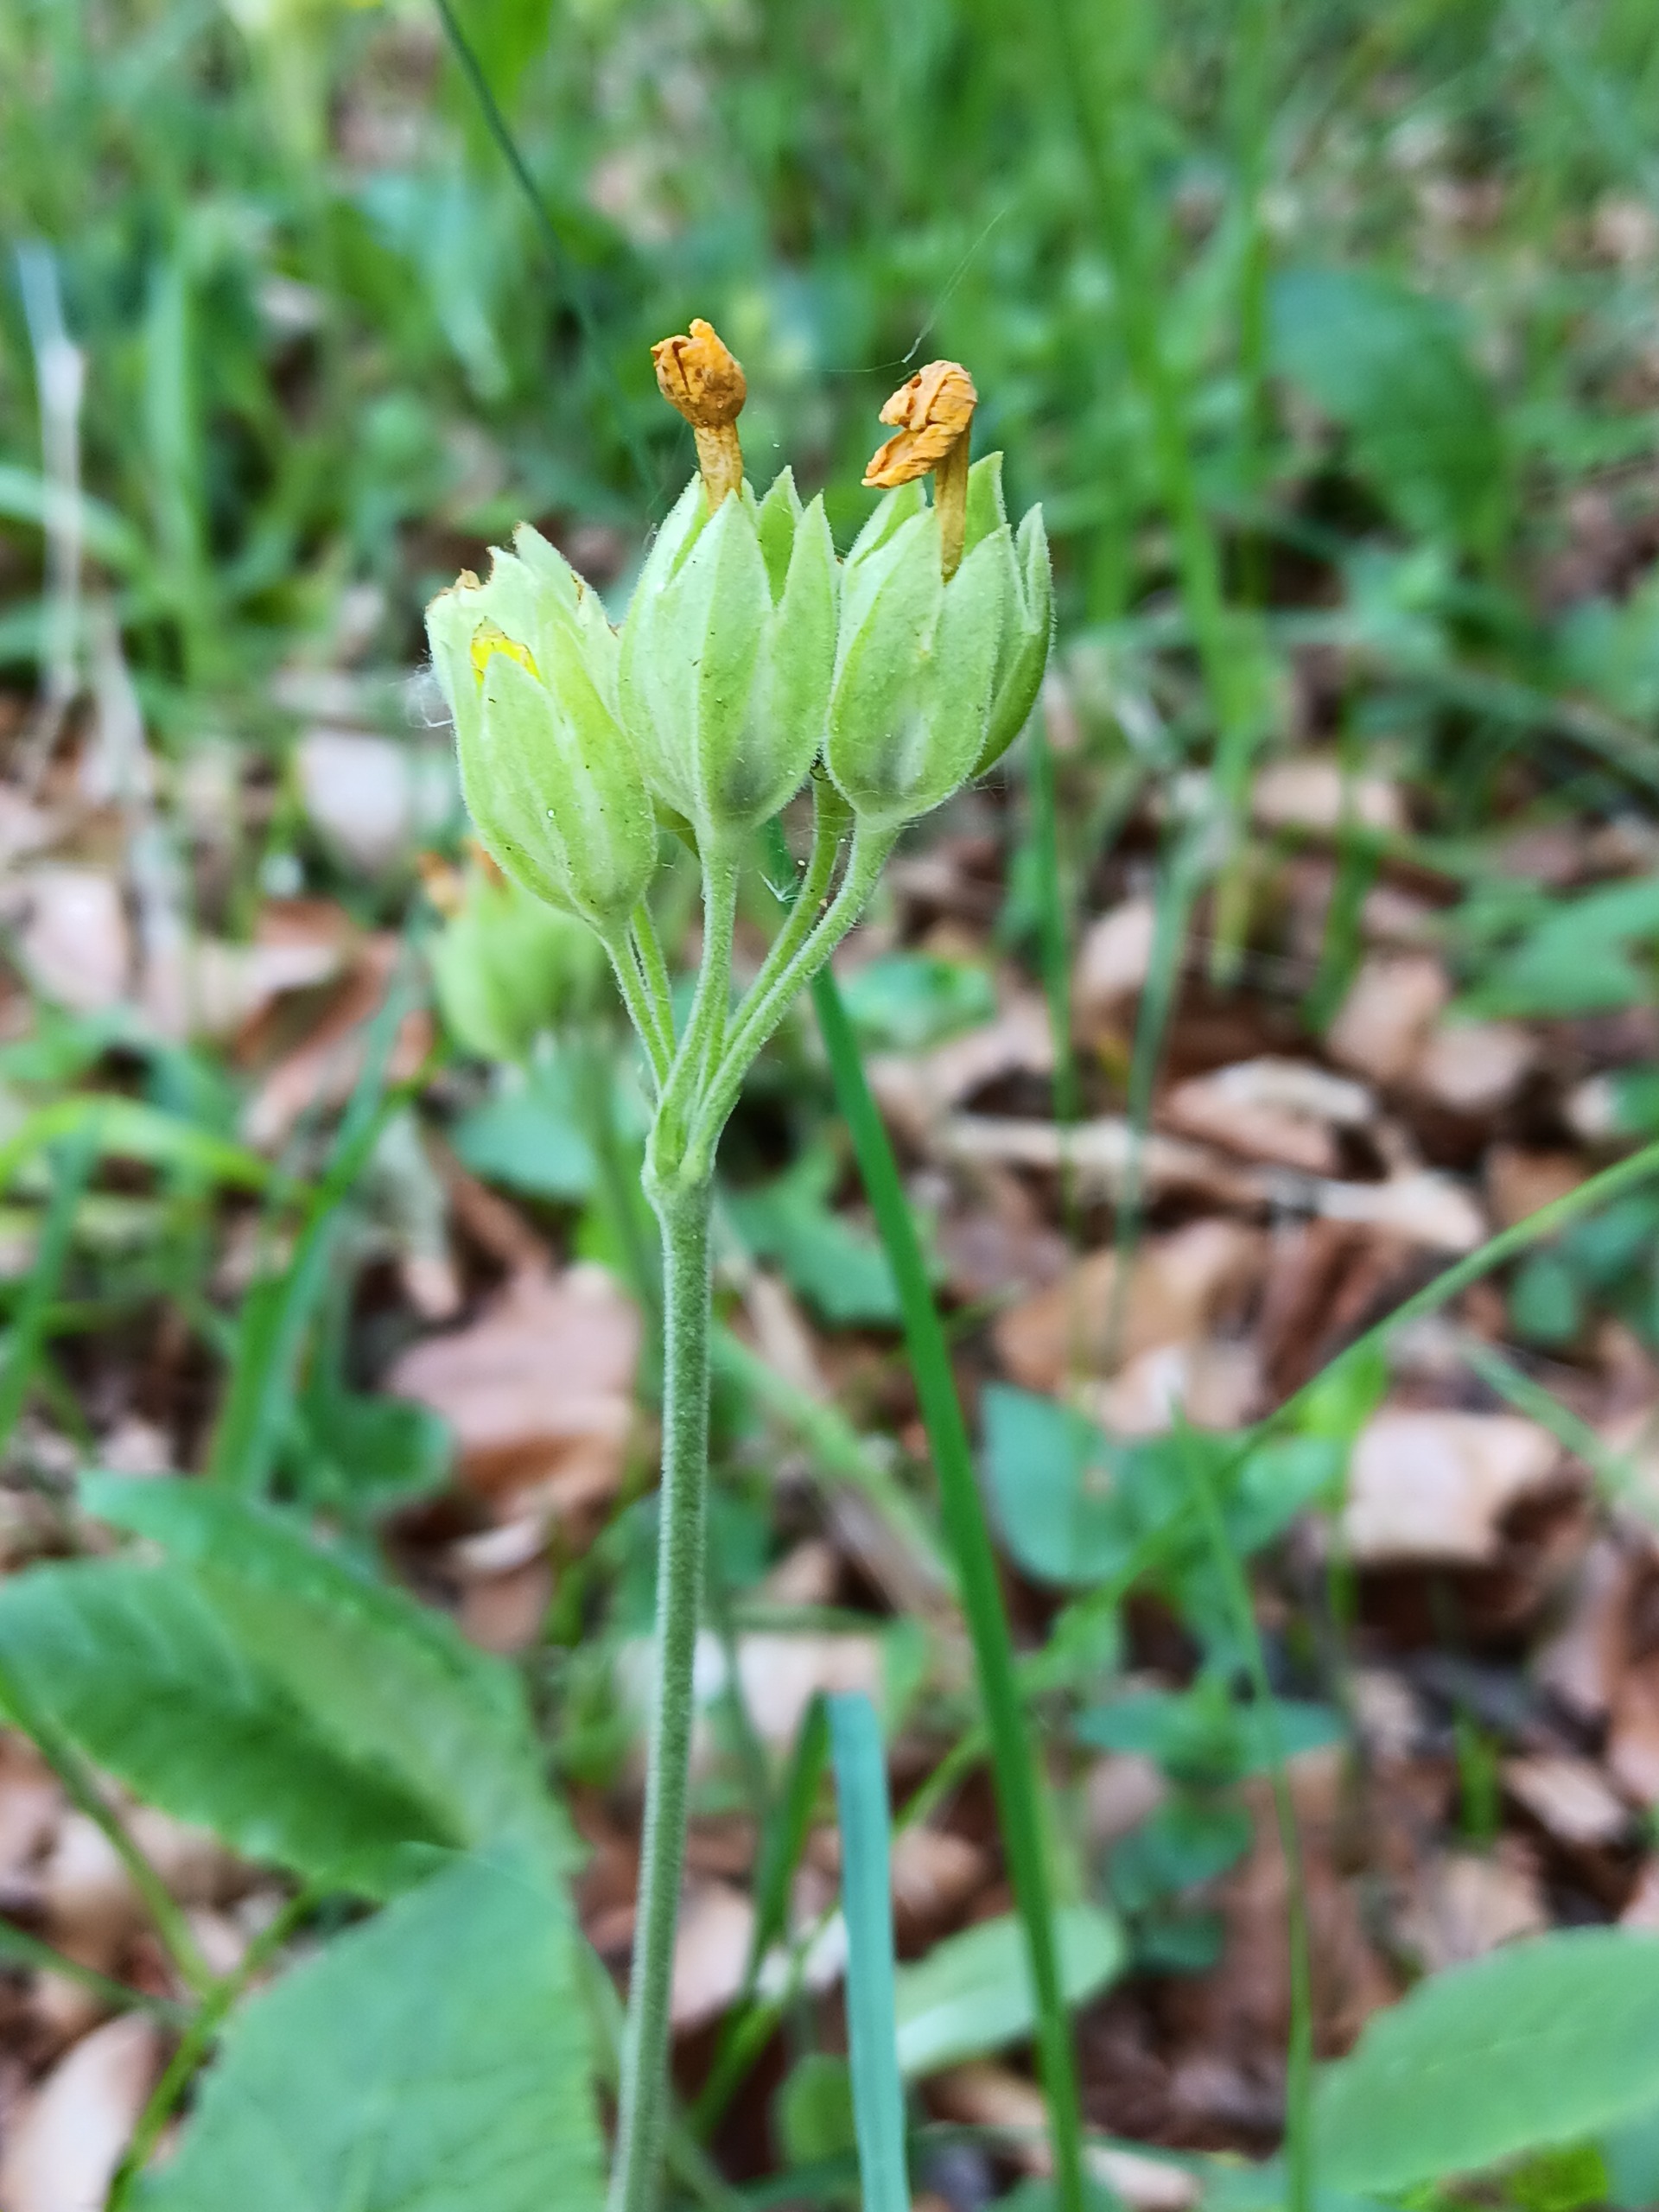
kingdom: Plantae
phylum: Tracheophyta
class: Magnoliopsida
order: Ericales
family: Primulaceae
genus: Primula
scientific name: Primula veris
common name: Hulkravet kodriver
